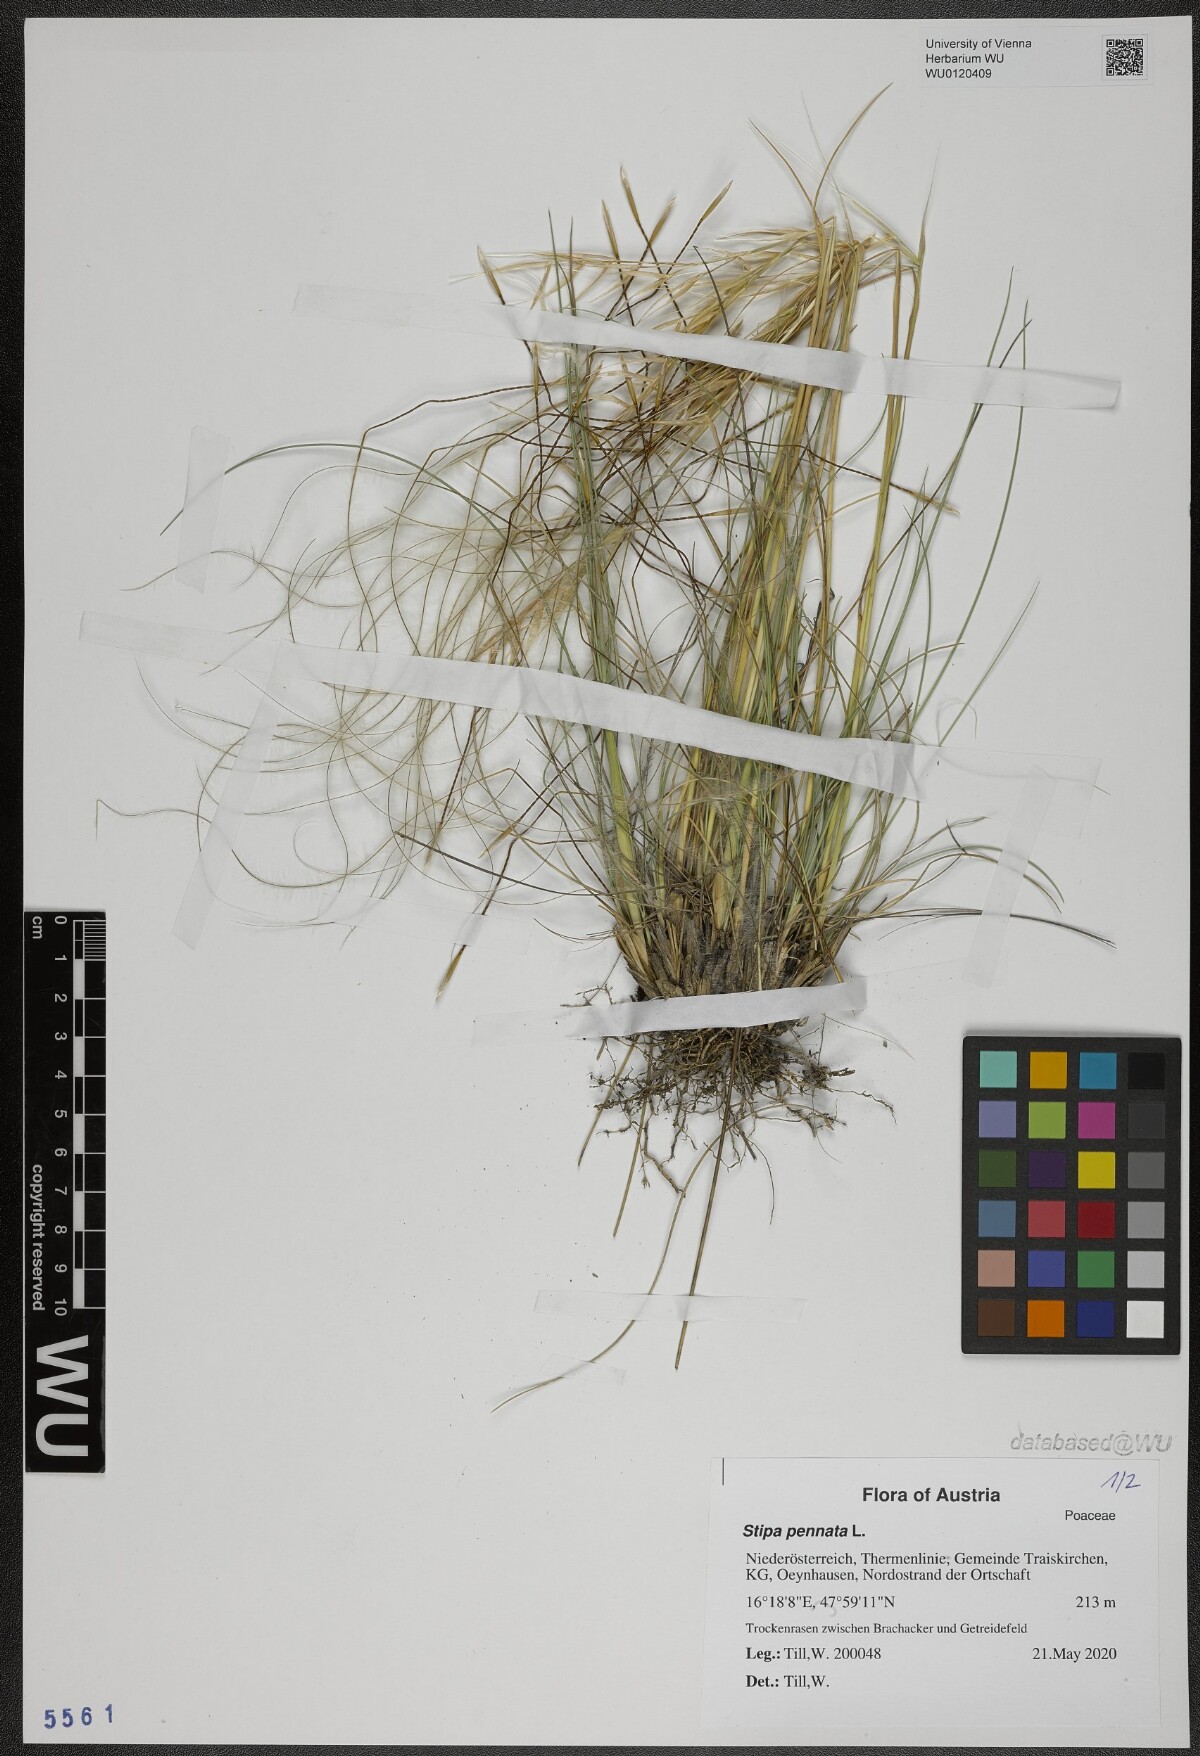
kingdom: Plantae
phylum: Tracheophyta
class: Liliopsida
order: Poales
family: Poaceae
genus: Stipa
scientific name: Stipa pennata
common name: European feather grass
